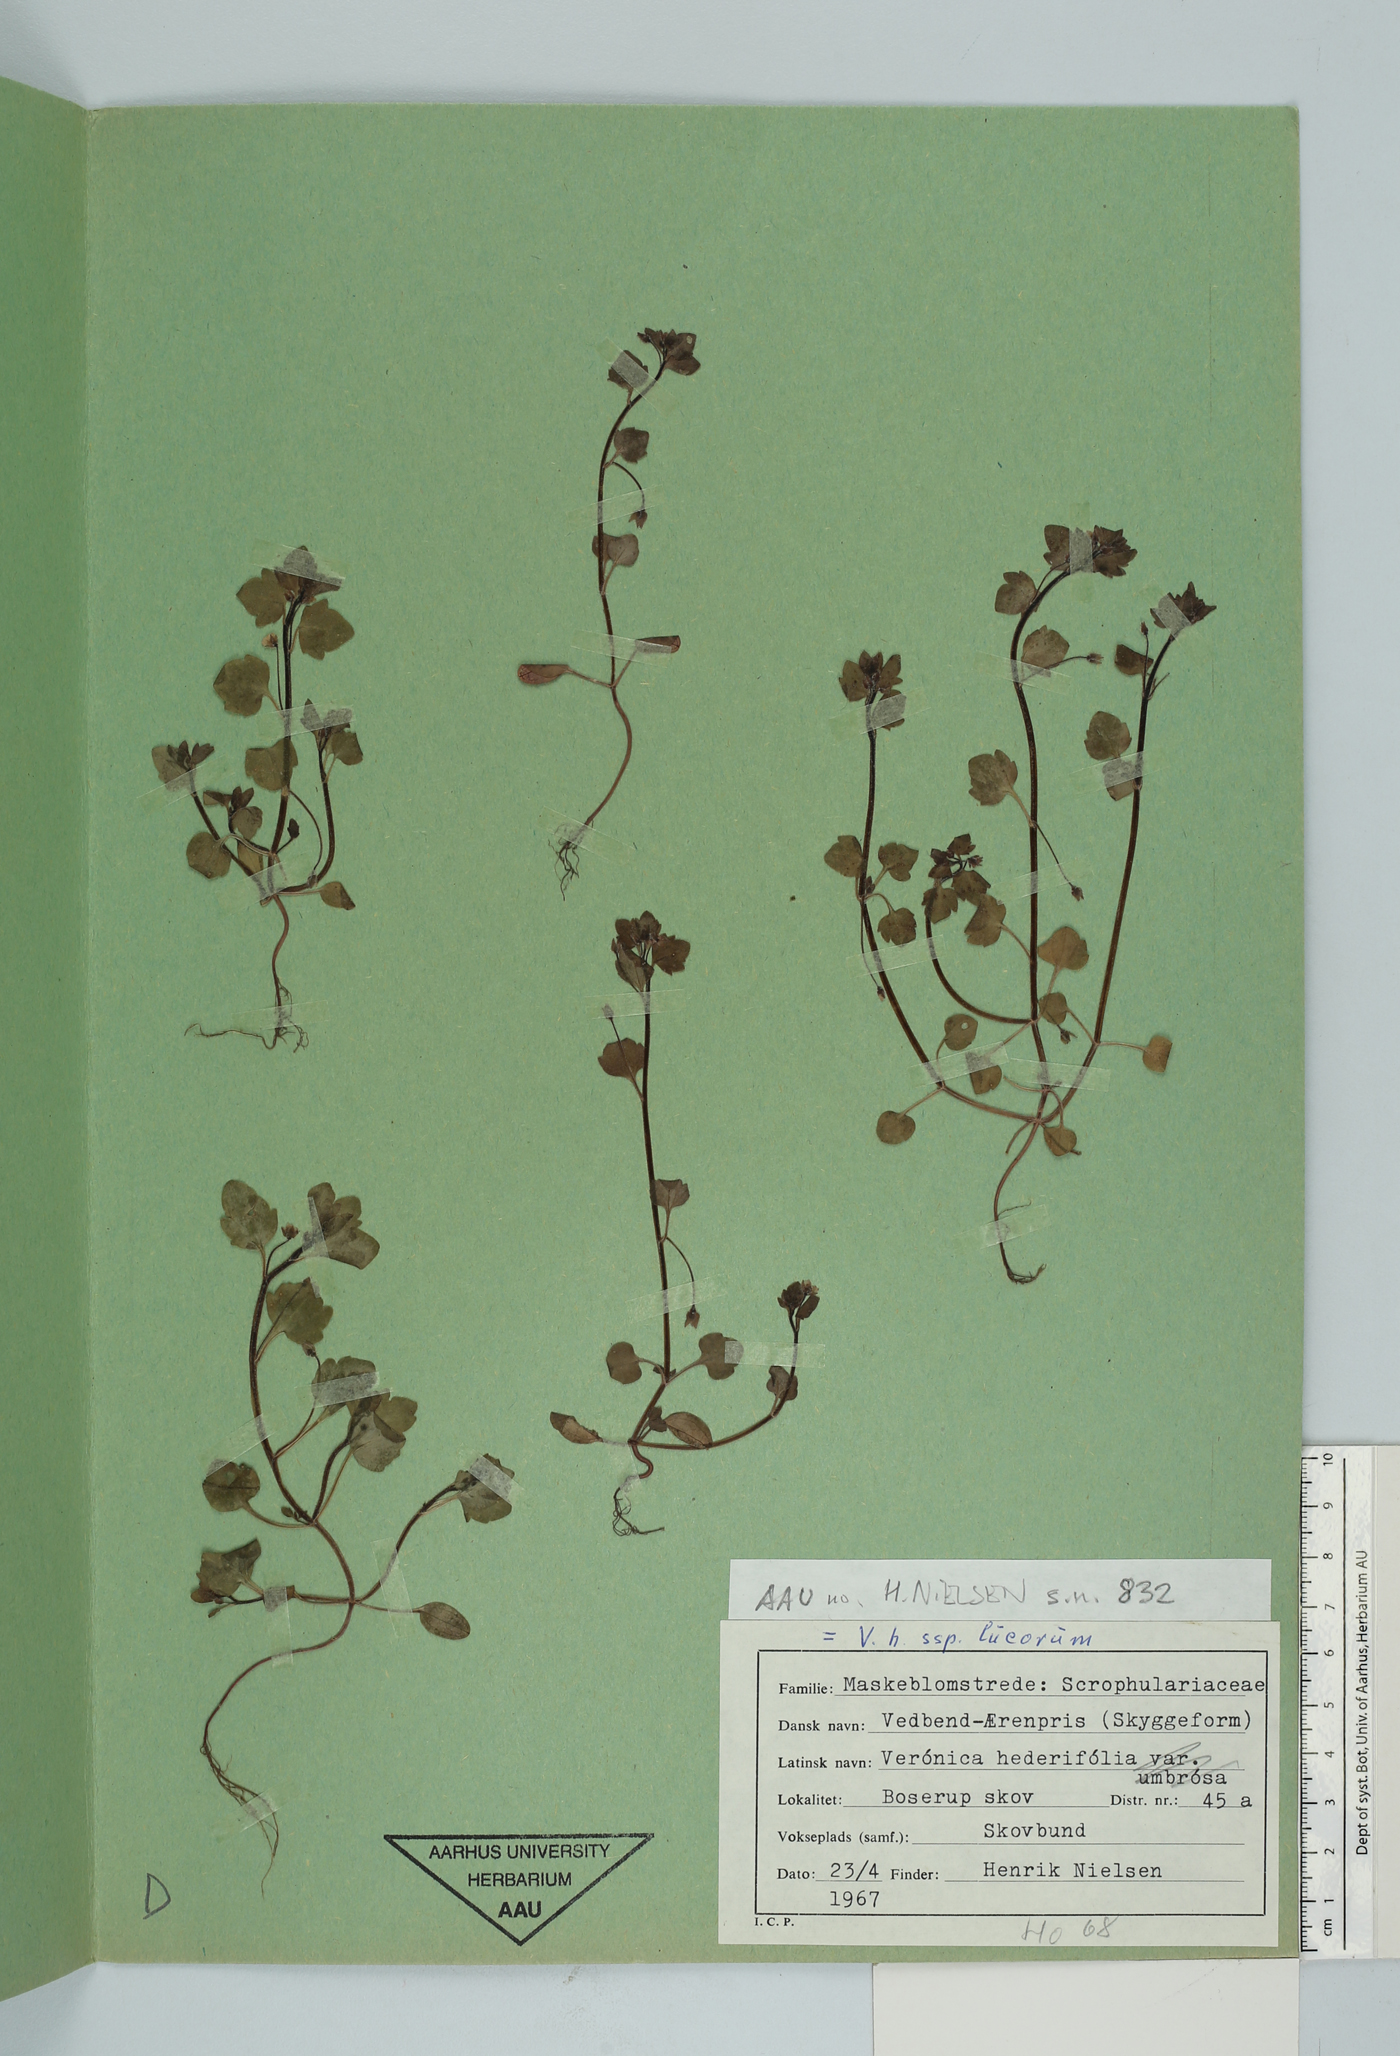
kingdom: Plantae
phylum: Tracheophyta
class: Magnoliopsida
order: Lamiales
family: Plantaginaceae
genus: Veronica
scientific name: Veronica sublobata
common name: False ivy-leaved speedwell
